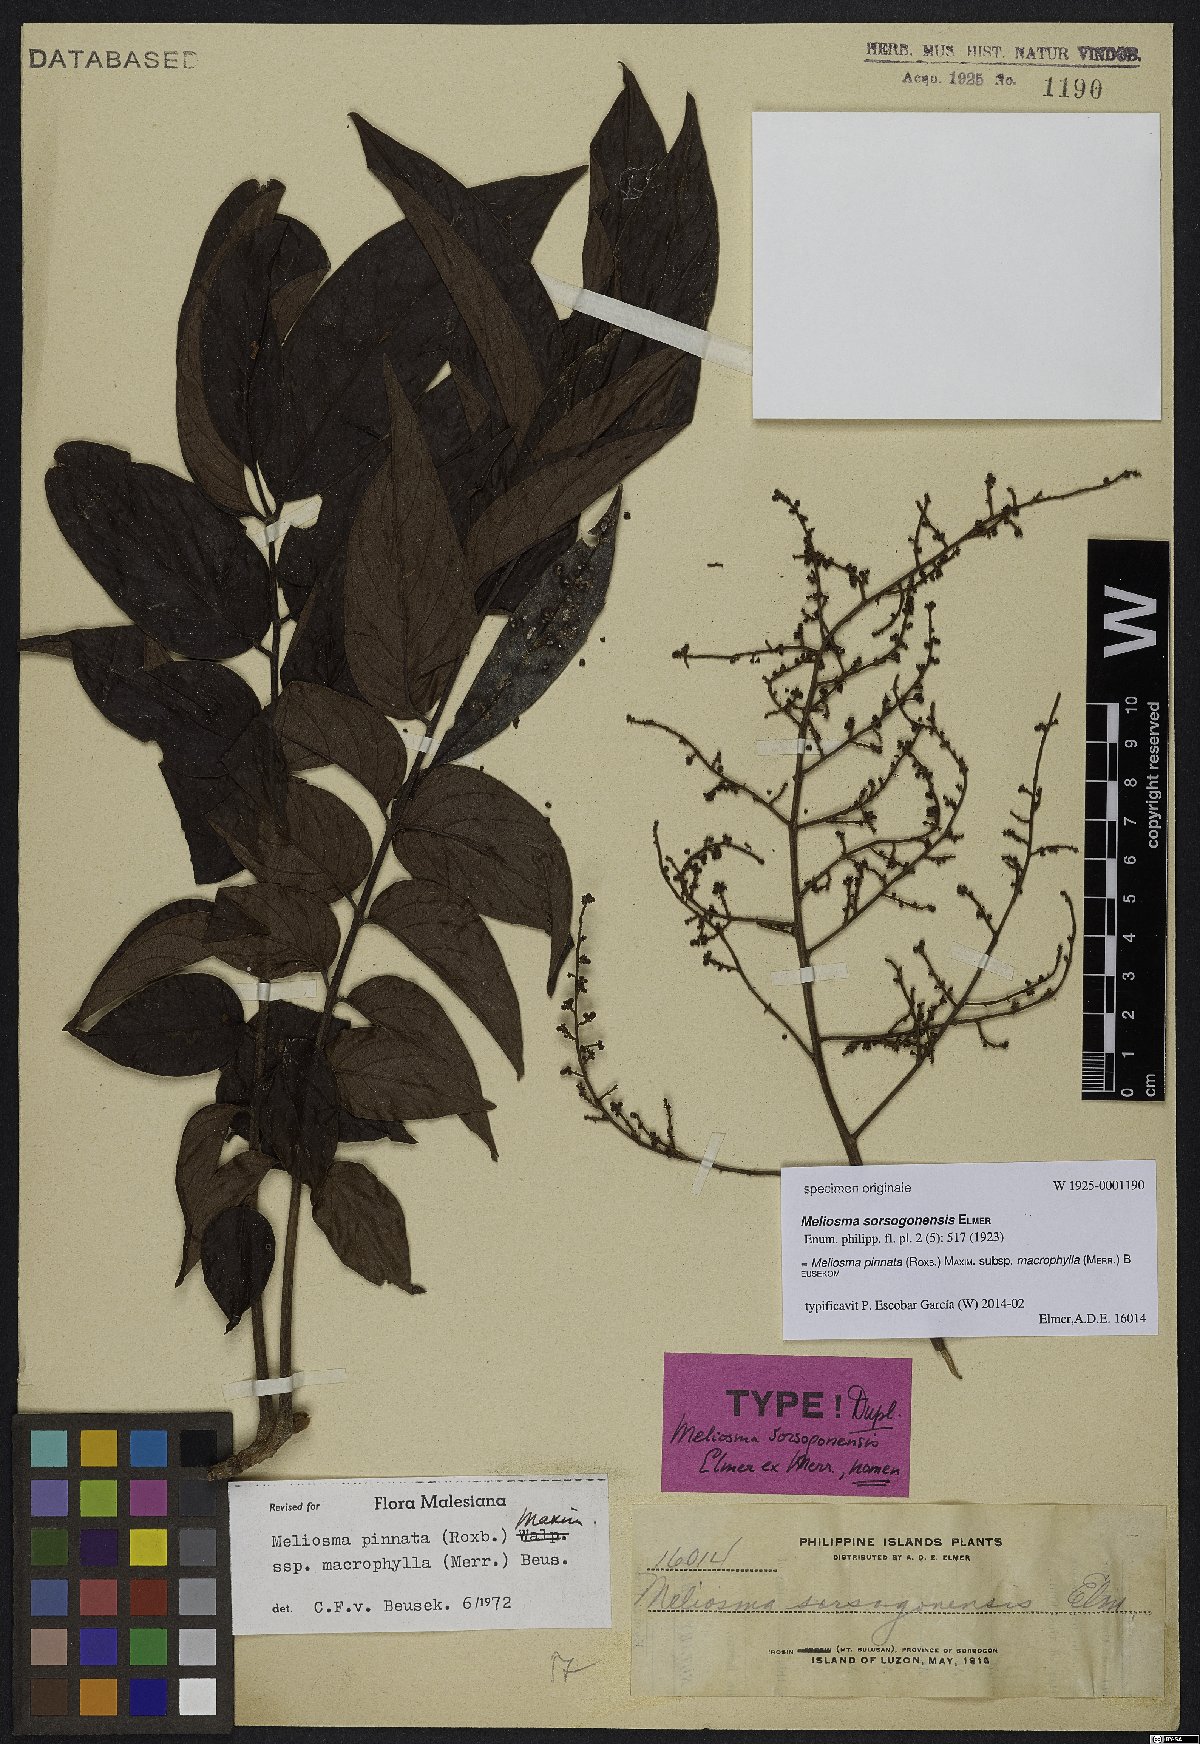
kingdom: Plantae
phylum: Tracheophyta
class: Magnoliopsida
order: Proteales
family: Sabiaceae
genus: Meliosma
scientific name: Meliosma pinnata
